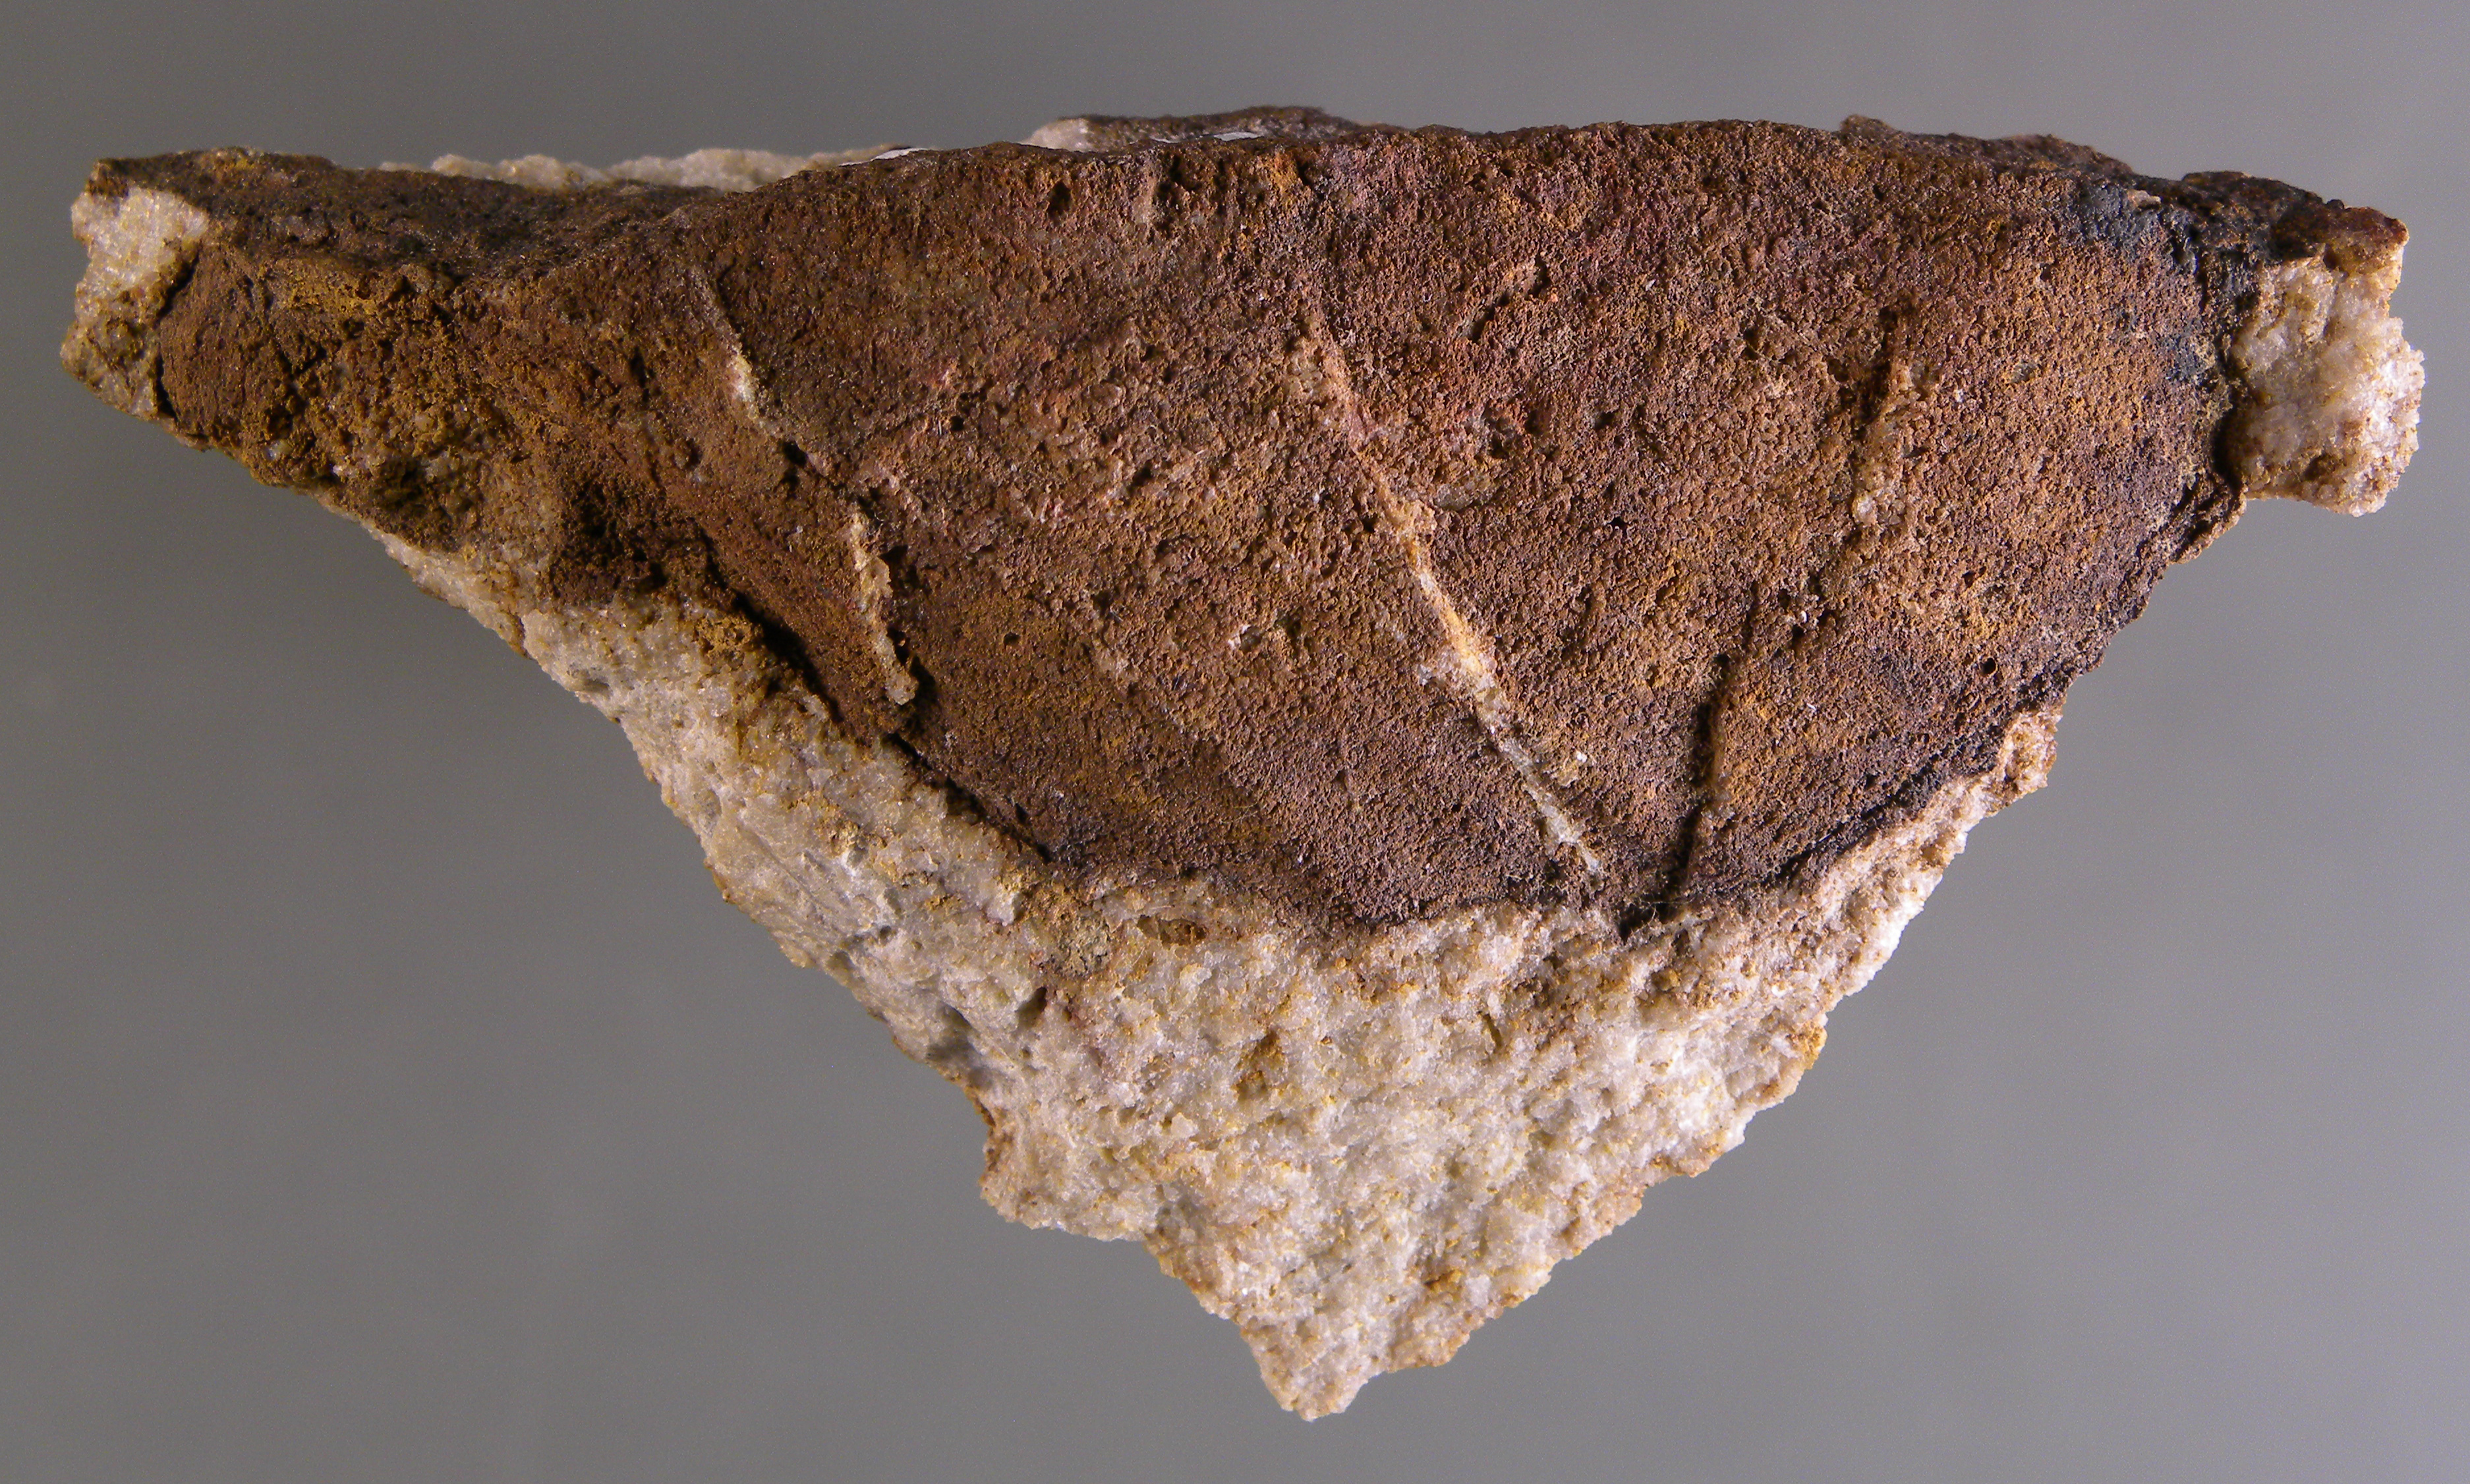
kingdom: Animalia
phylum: Mollusca
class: Bivalvia
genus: Phorinoplax
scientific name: Phorinoplax
